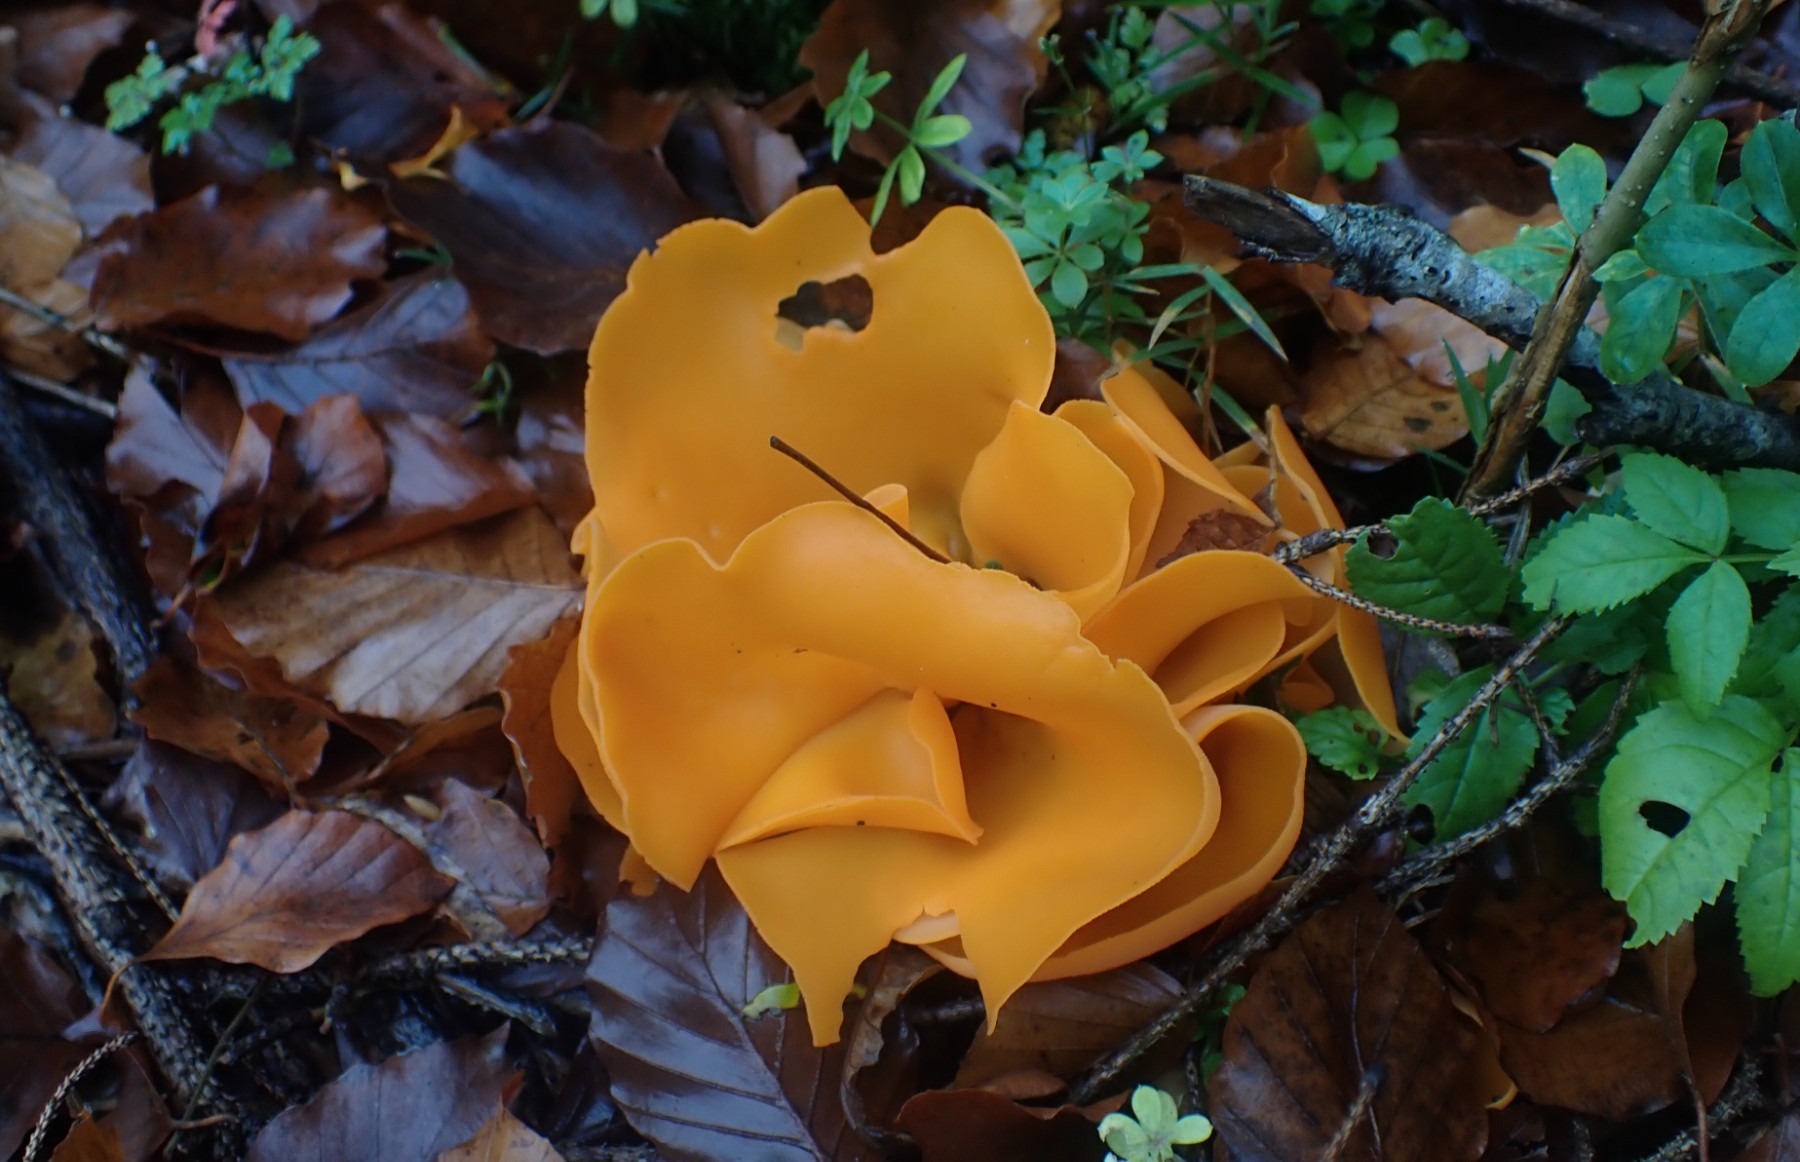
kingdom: Fungi
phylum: Ascomycota
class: Pezizomycetes
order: Pezizales
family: Pyronemataceae
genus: Aleuria
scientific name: Aleuria aurantia
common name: almindelig orangebæger
